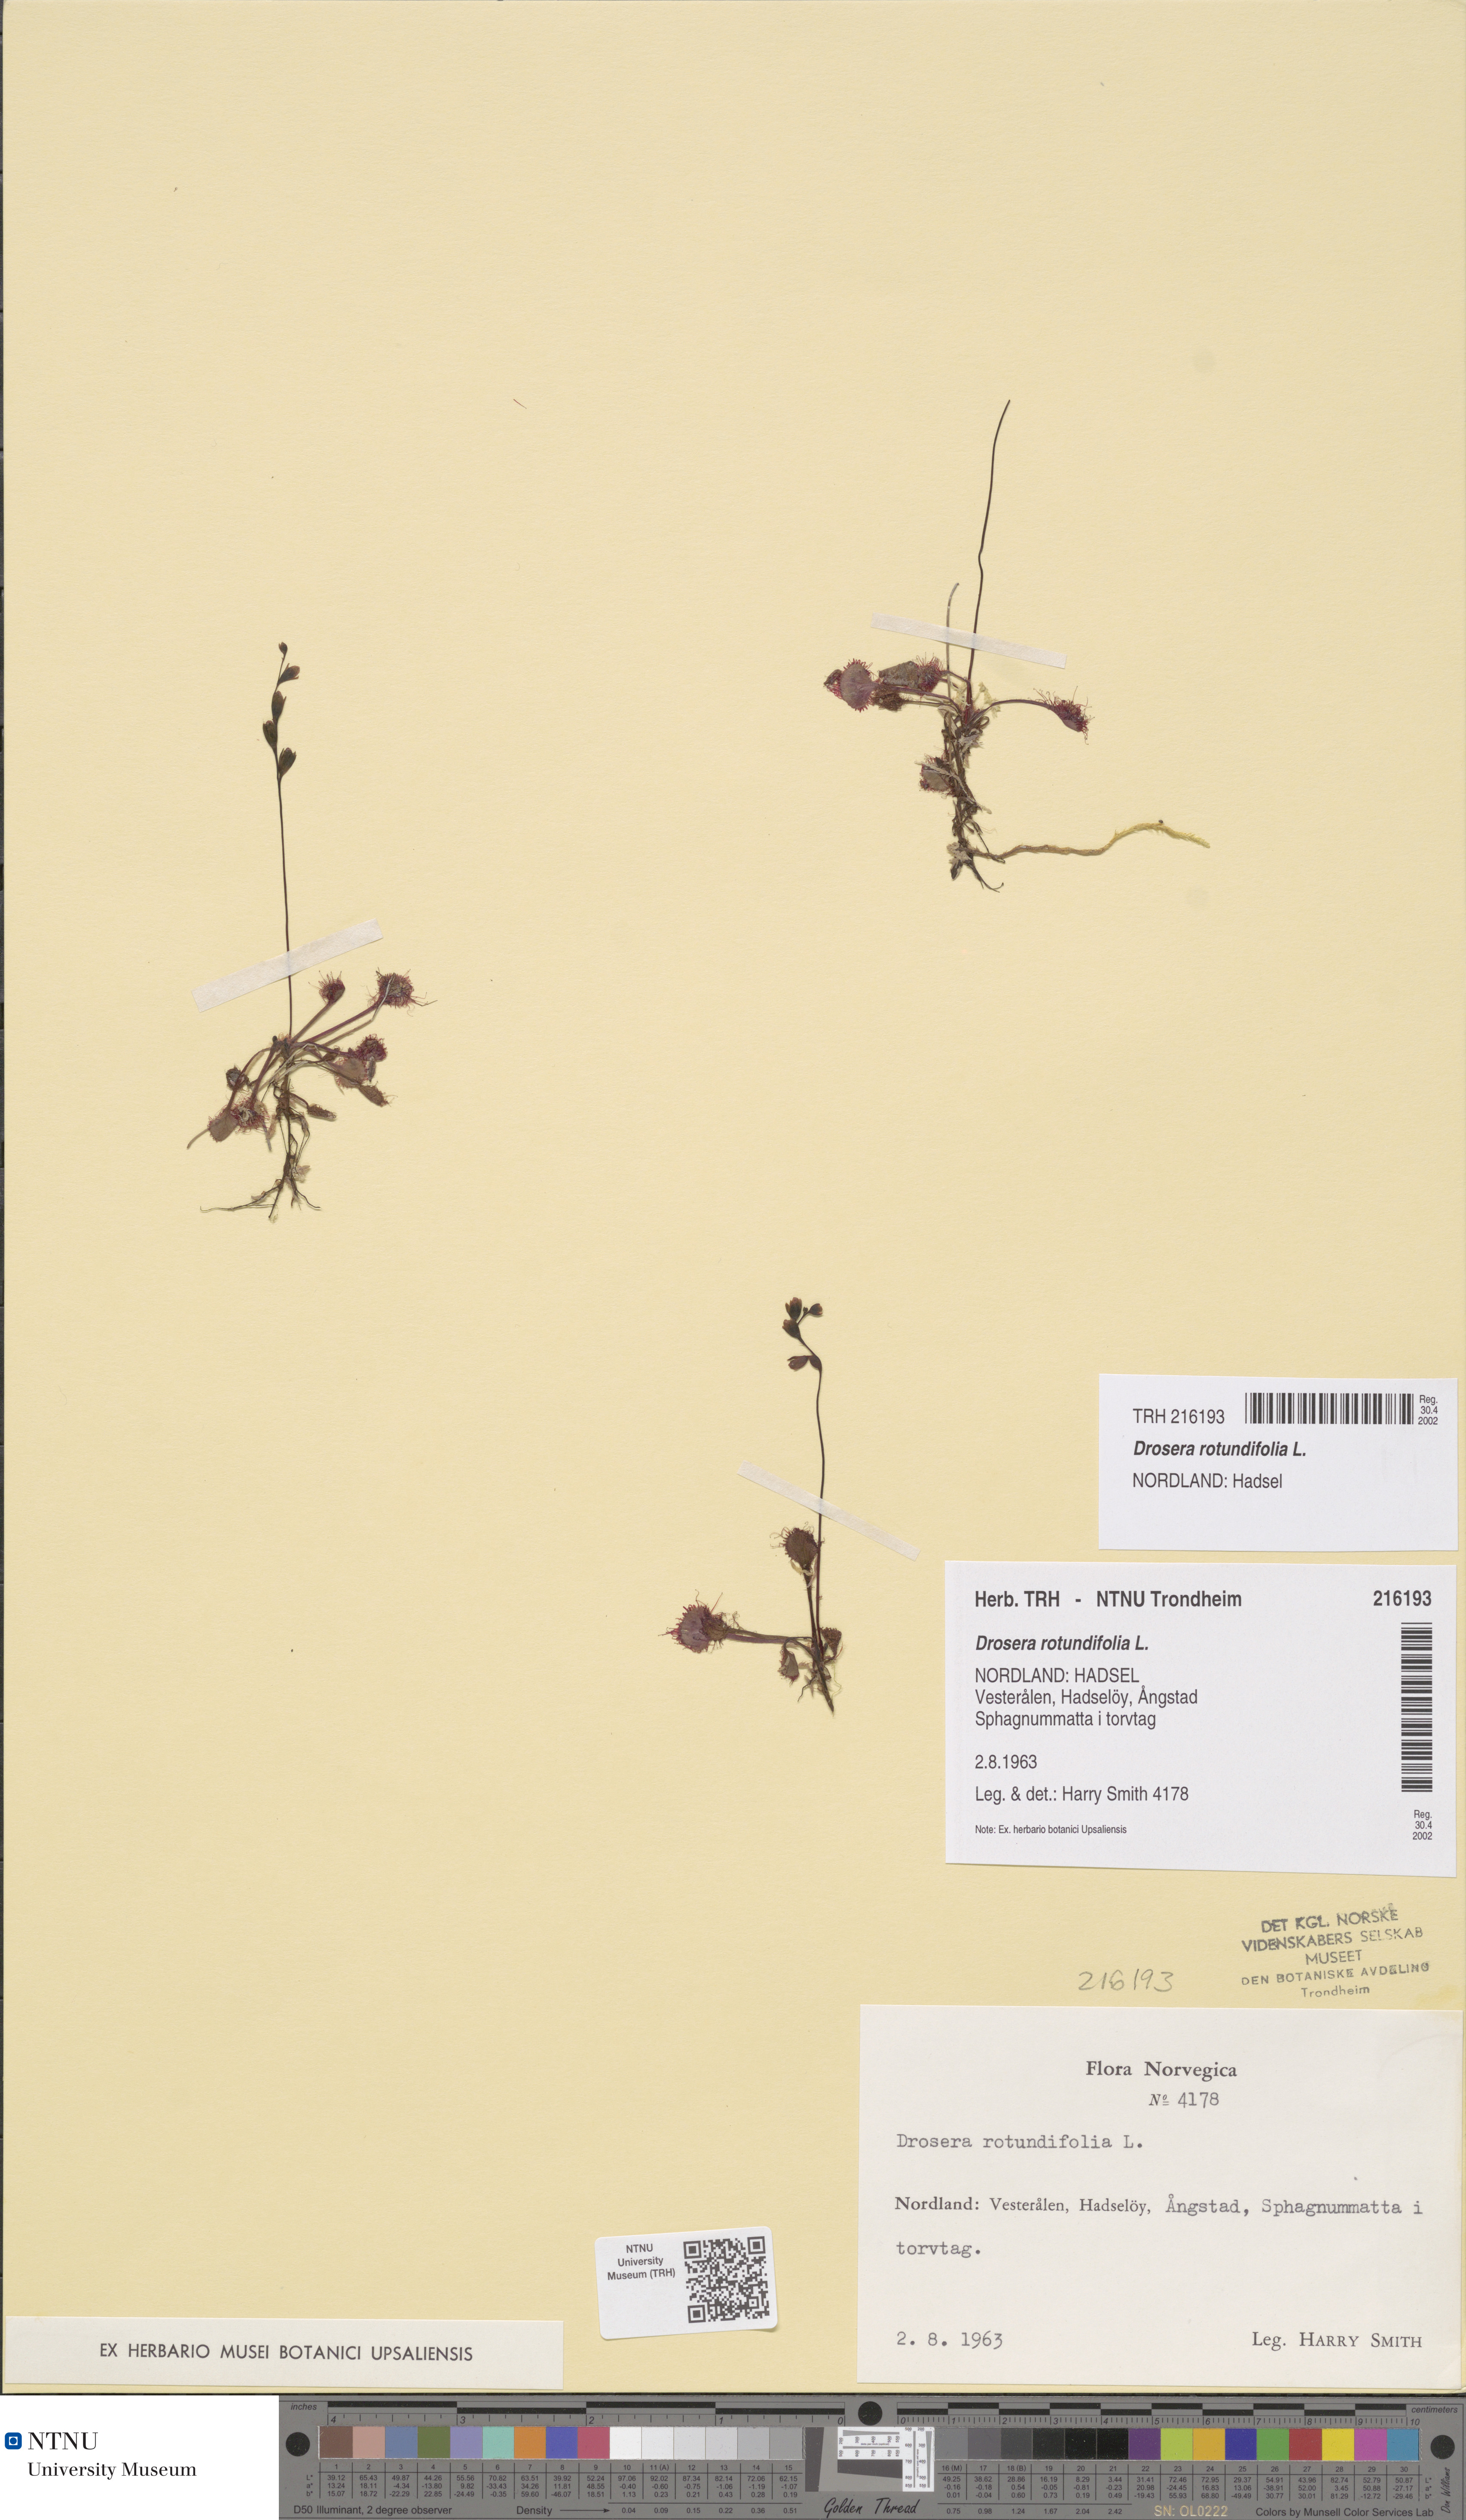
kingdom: Plantae
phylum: Tracheophyta
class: Magnoliopsida
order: Caryophyllales
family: Droseraceae
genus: Drosera
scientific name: Drosera rotundifolia
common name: Round-leaved sundew
